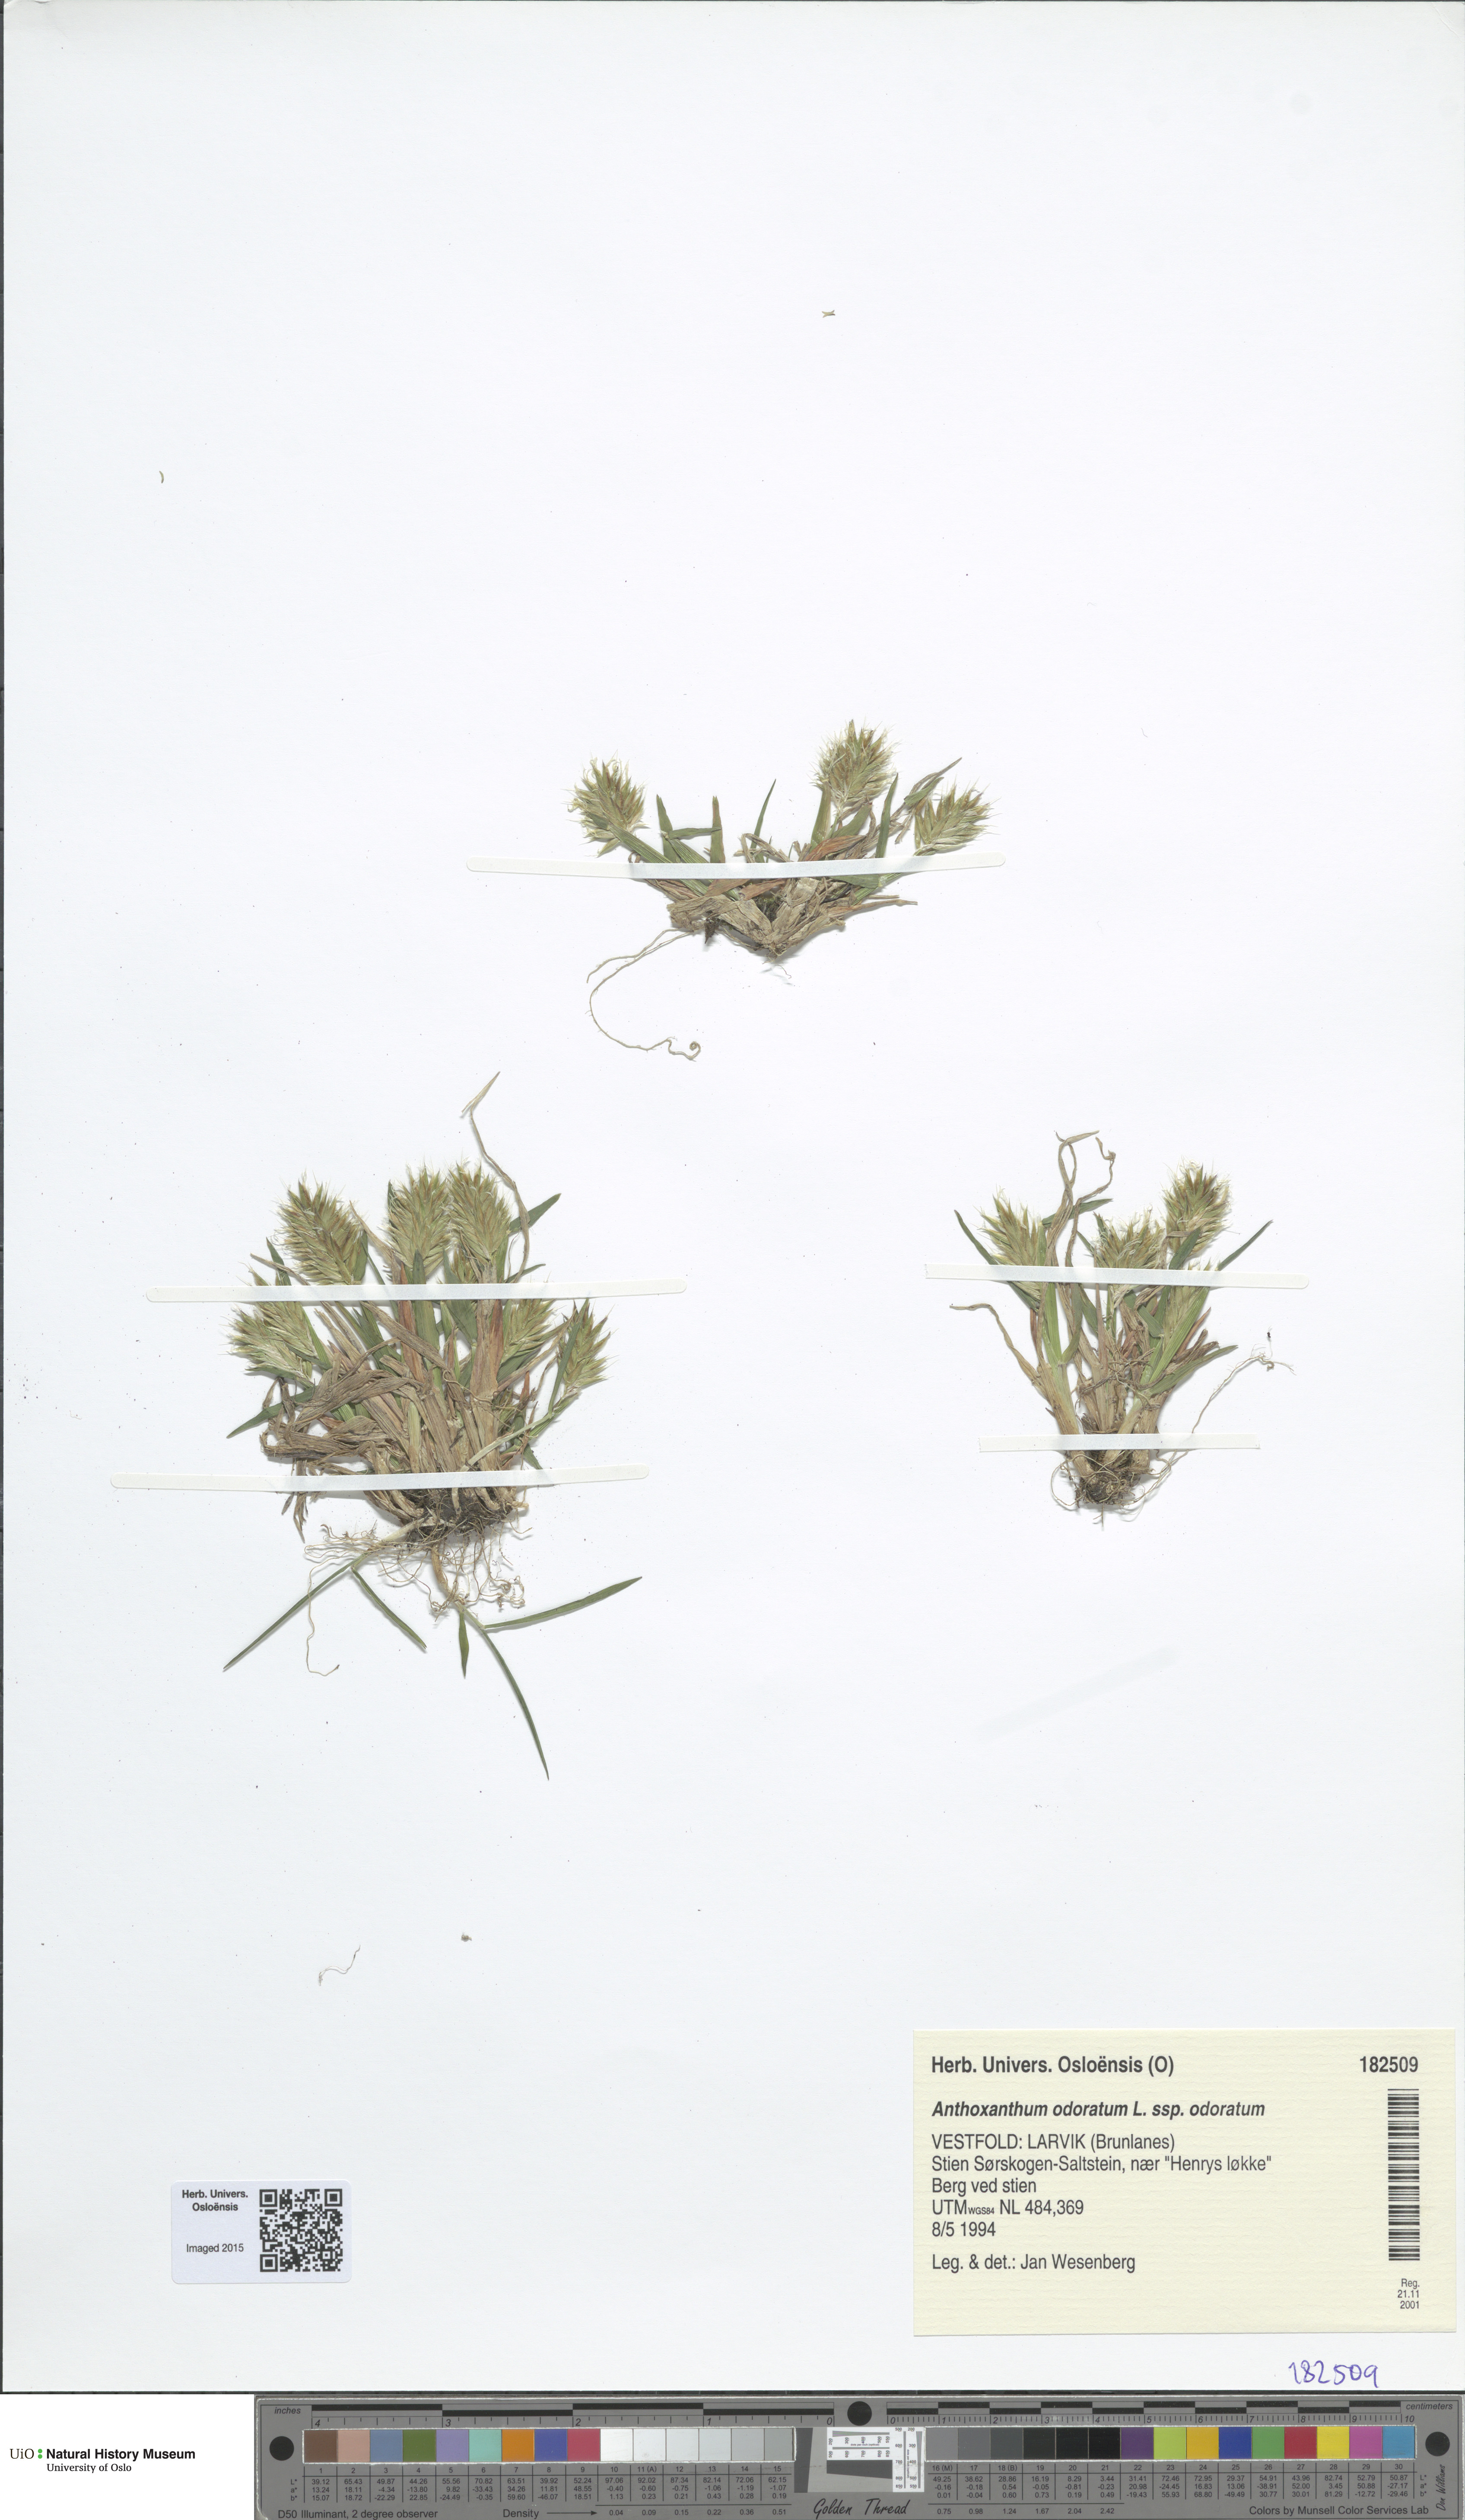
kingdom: Plantae
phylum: Tracheophyta
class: Liliopsida
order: Poales
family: Poaceae
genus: Anthoxanthum
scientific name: Anthoxanthum odoratum
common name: Sweet vernalgrass
